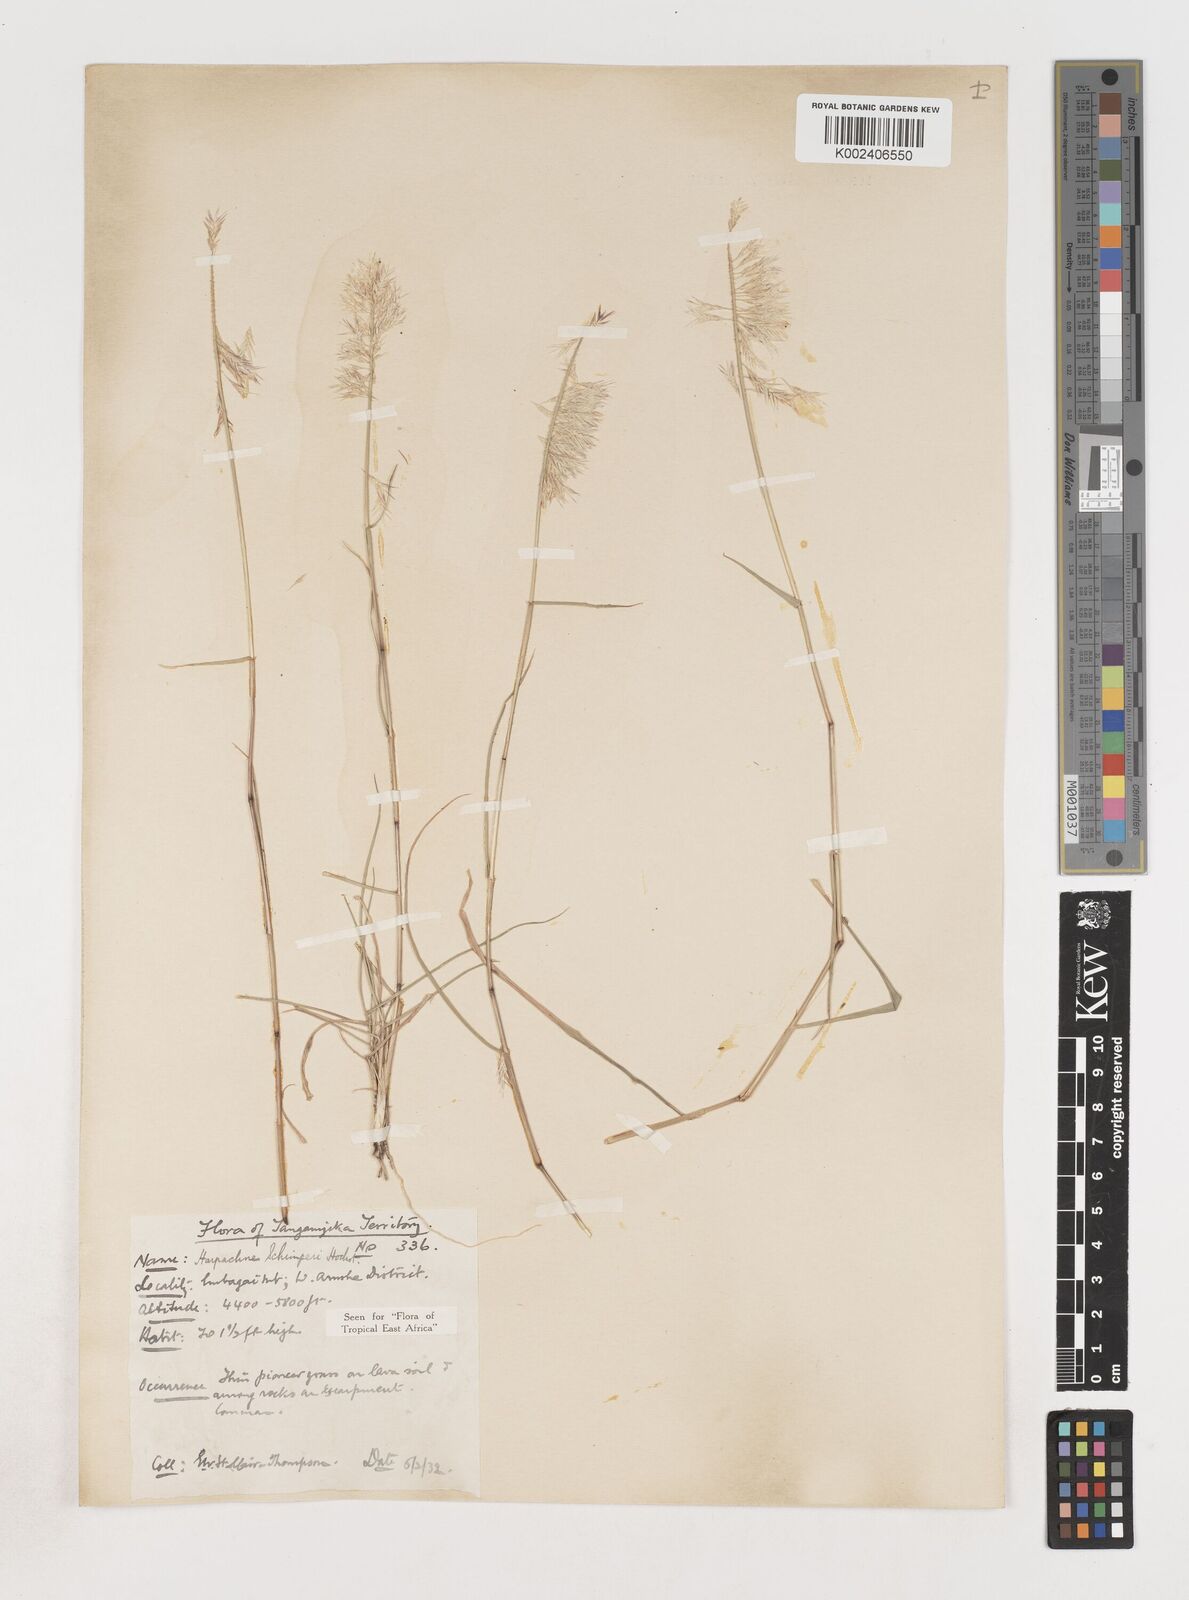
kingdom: Plantae
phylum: Tracheophyta
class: Liliopsida
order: Poales
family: Poaceae
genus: Harpachne
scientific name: Harpachne schimperi
